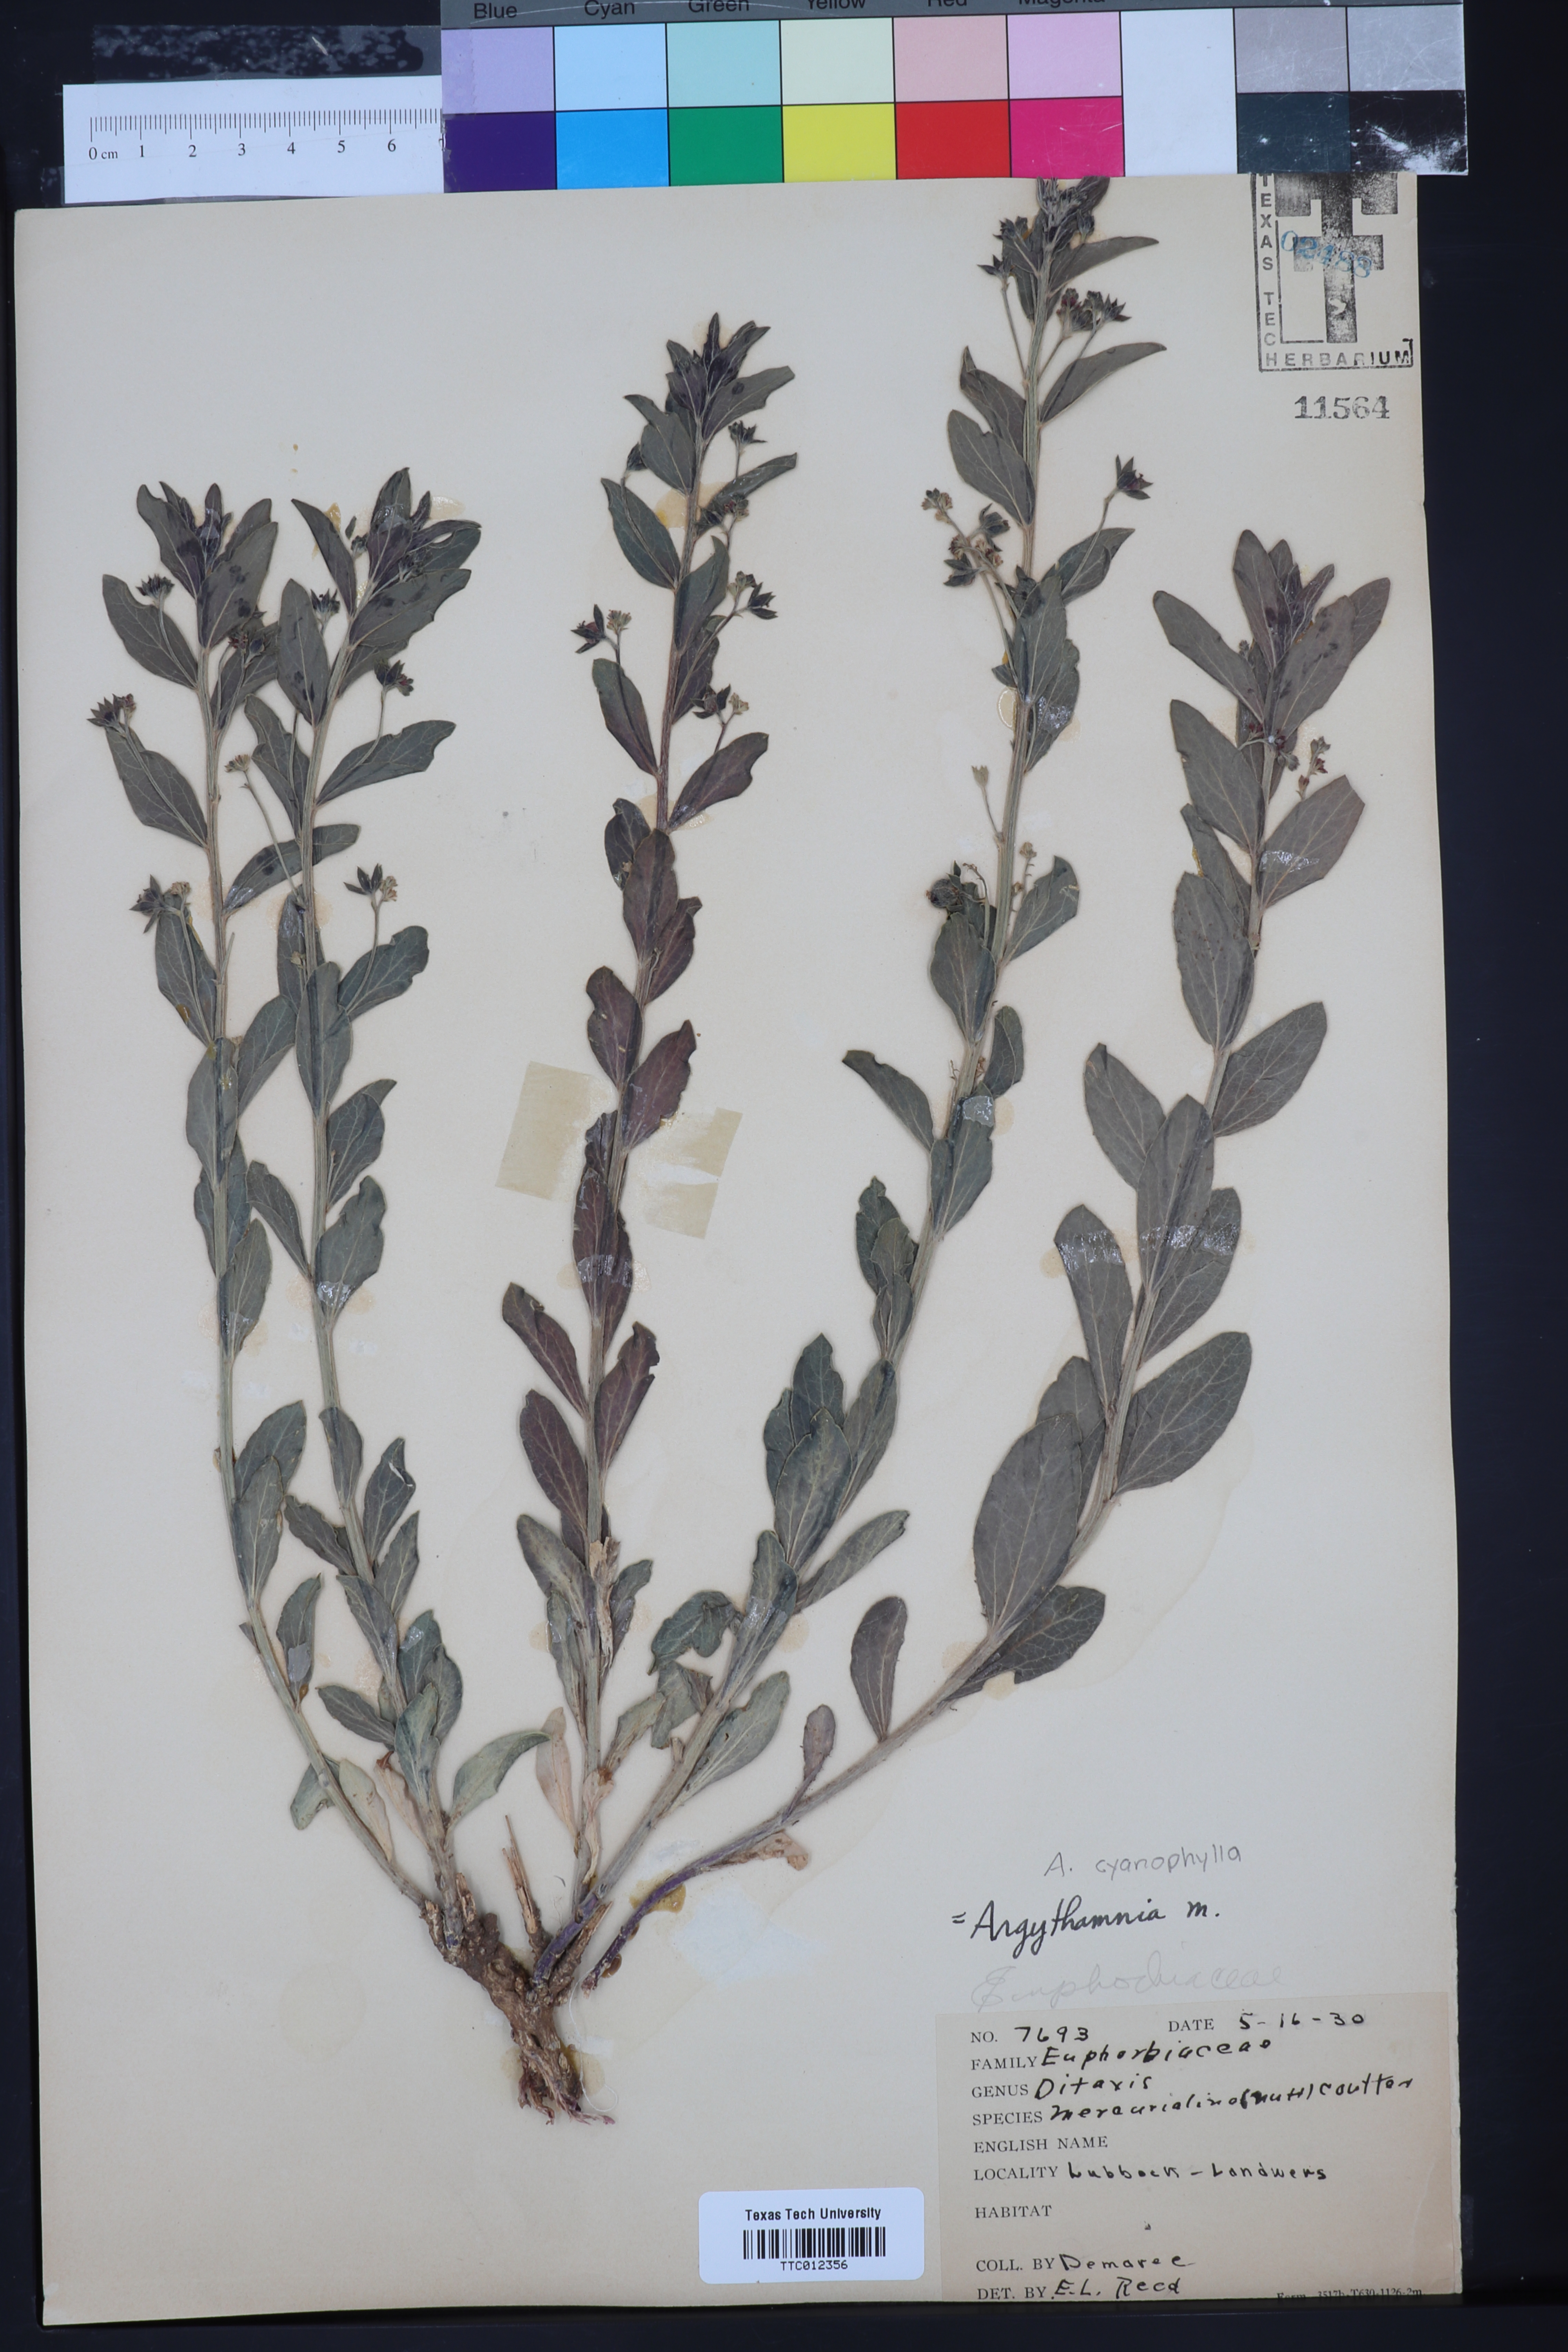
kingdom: Plantae
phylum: Tracheophyta
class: Magnoliopsida
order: Malpighiales
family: Euphorbiaceae
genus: Ditaxis
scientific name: Ditaxis mercurialina
